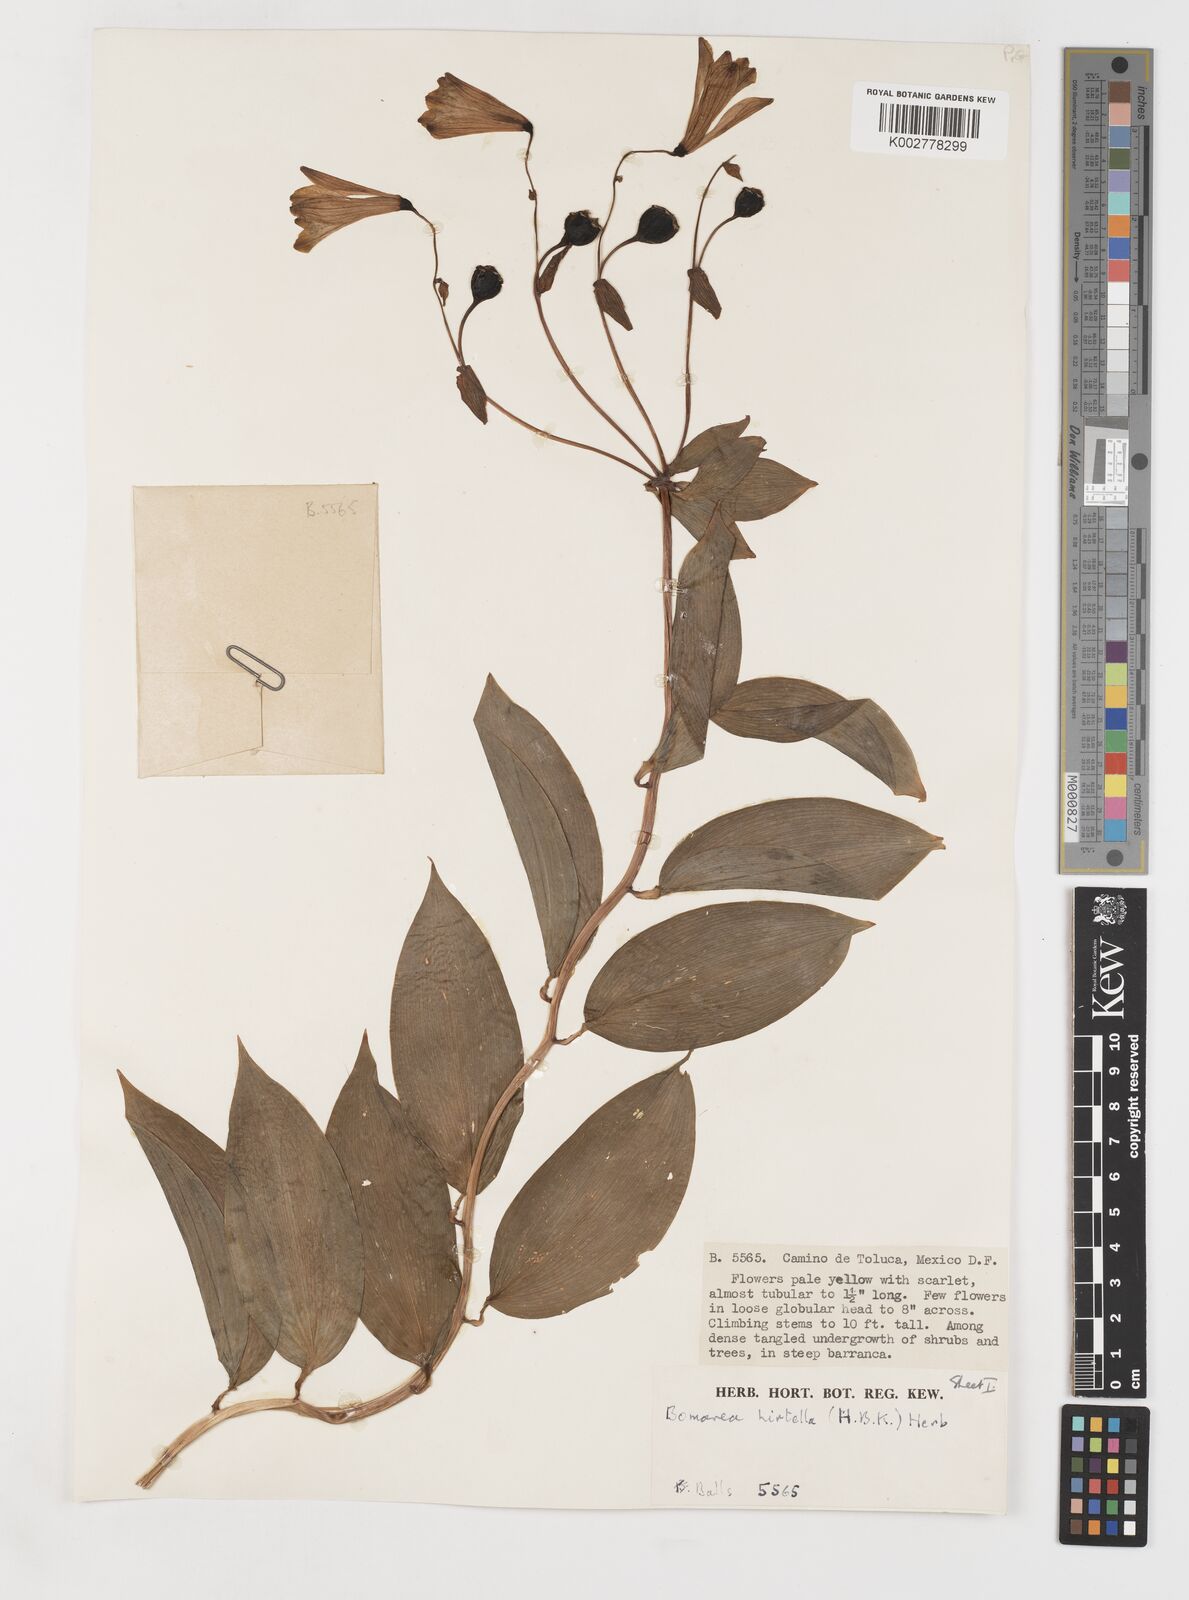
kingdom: Plantae
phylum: Tracheophyta
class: Liliopsida
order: Liliales
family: Alstroemeriaceae
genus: Bomarea
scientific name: Bomarea edulis
